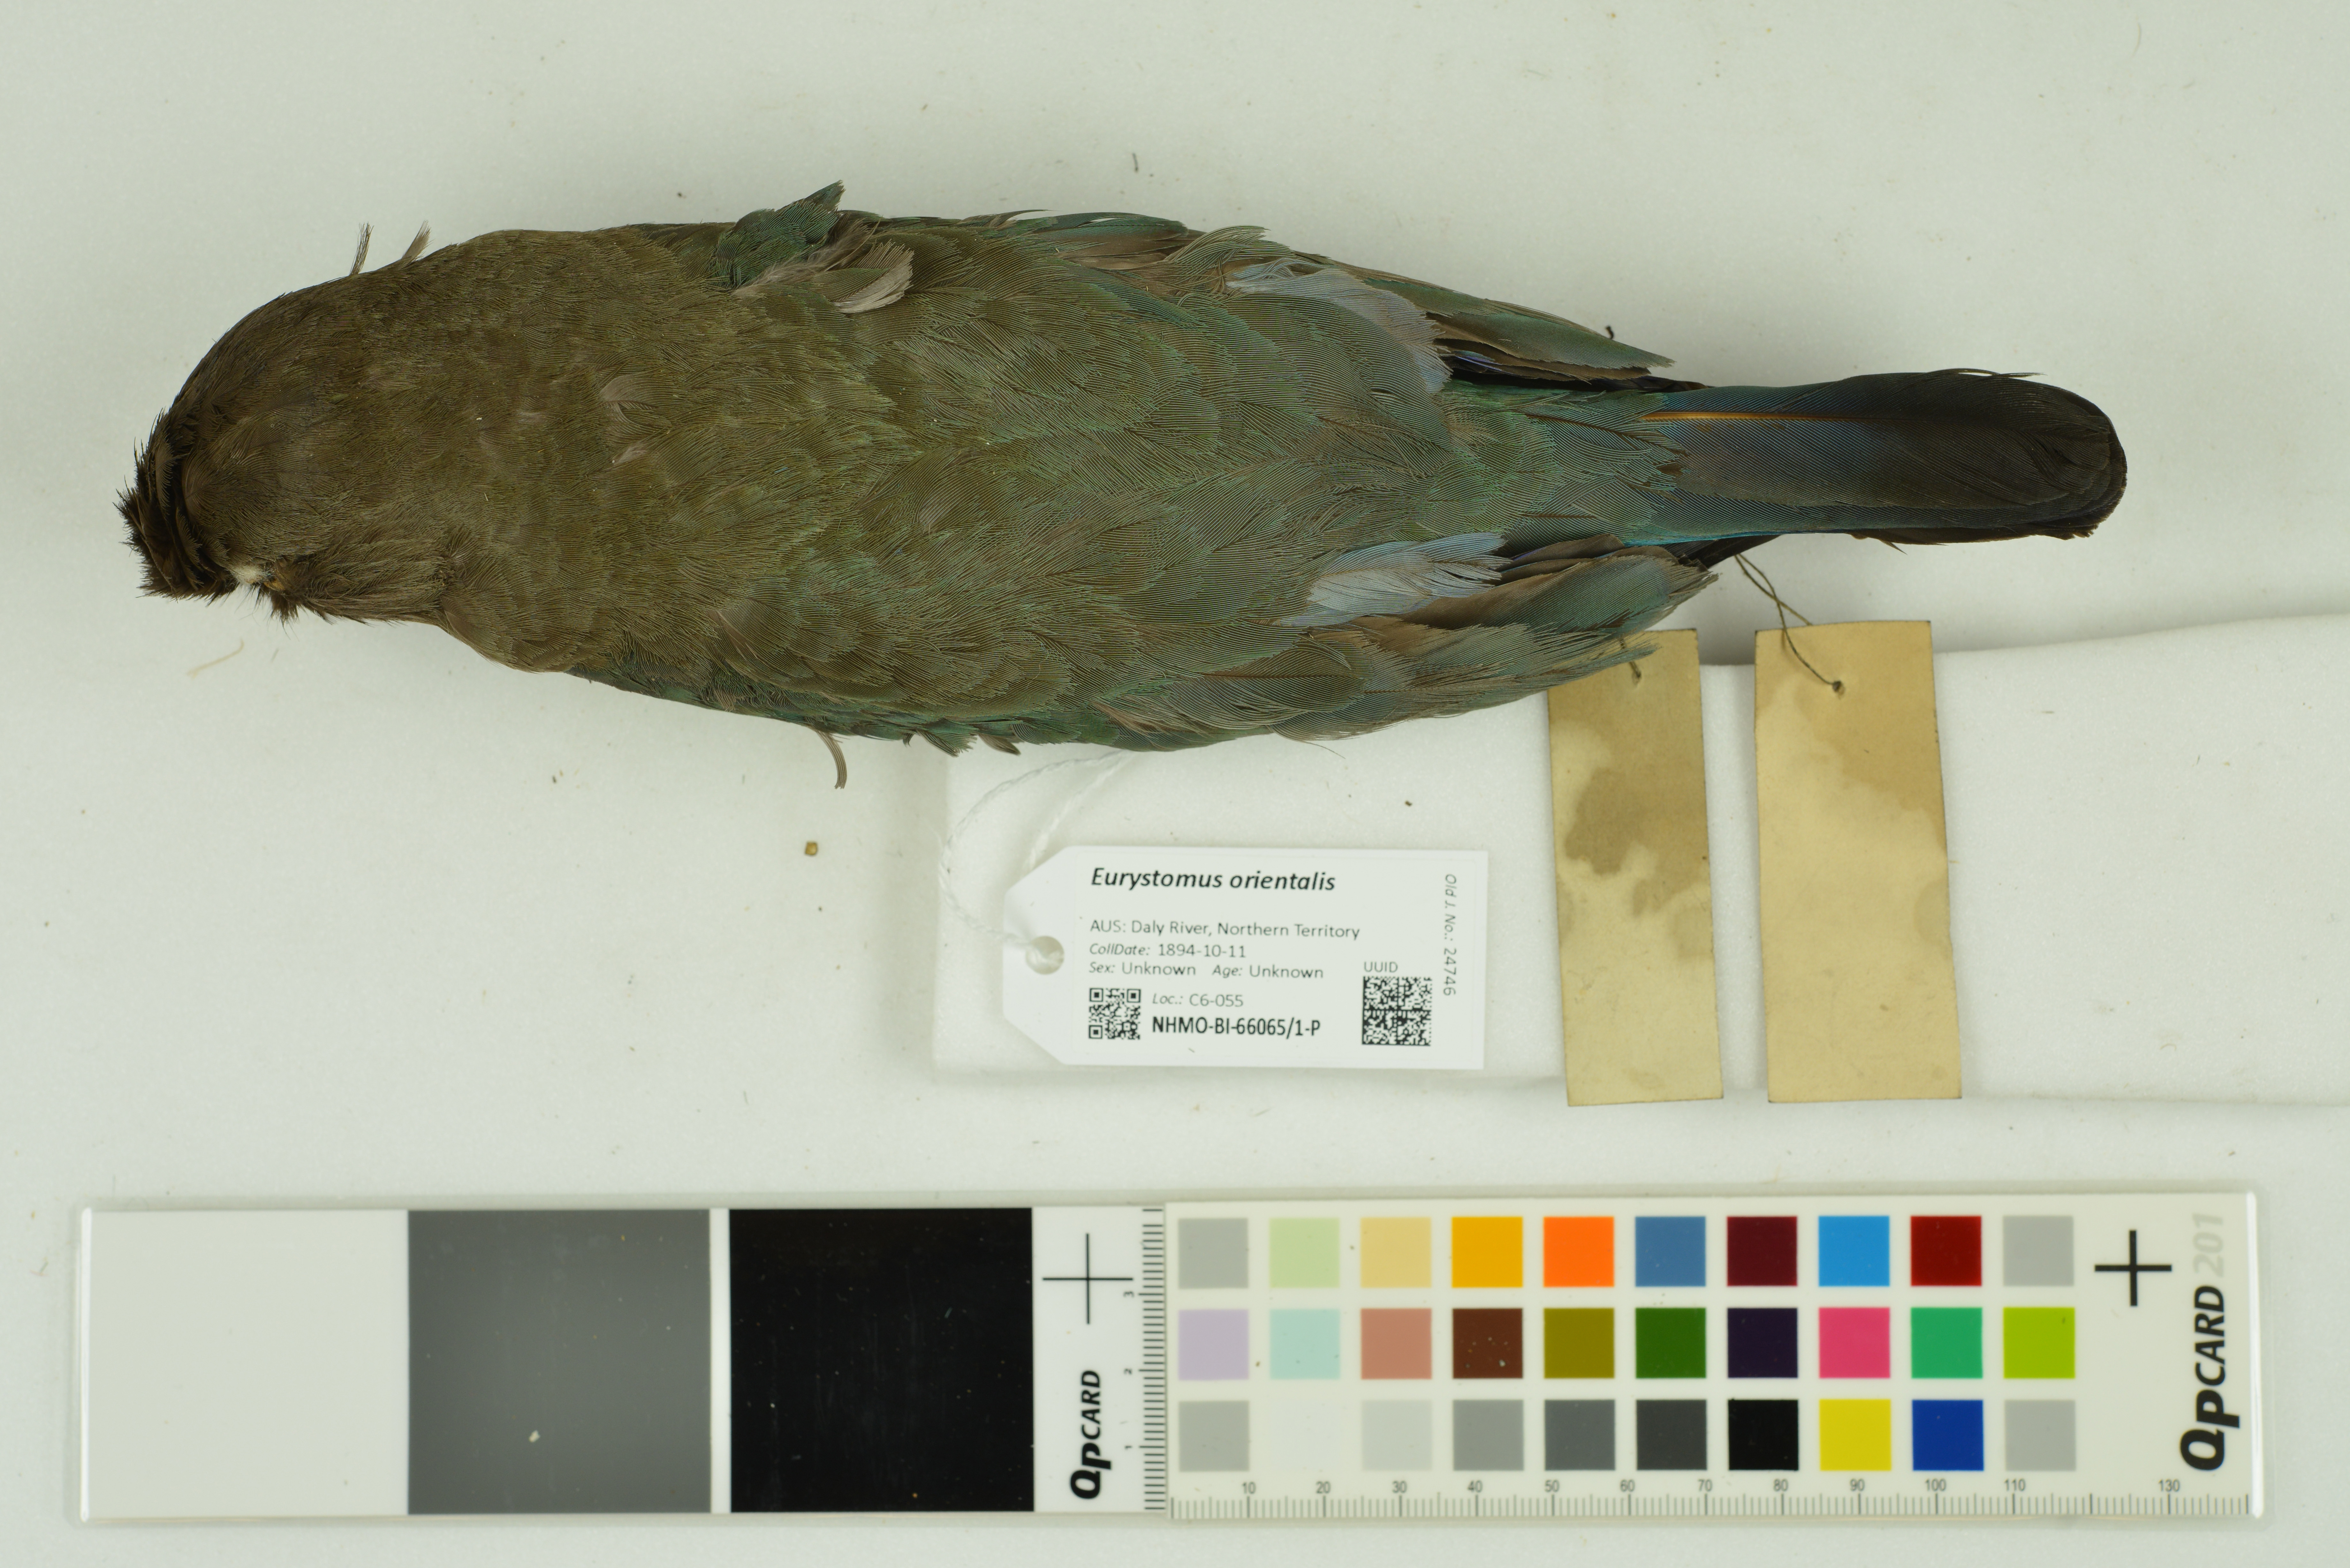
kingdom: Animalia
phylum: Chordata
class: Aves
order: Coraciiformes
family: Coraciidae
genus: Eurystomus
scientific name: Eurystomus orientalis
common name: Oriental dollarbird
